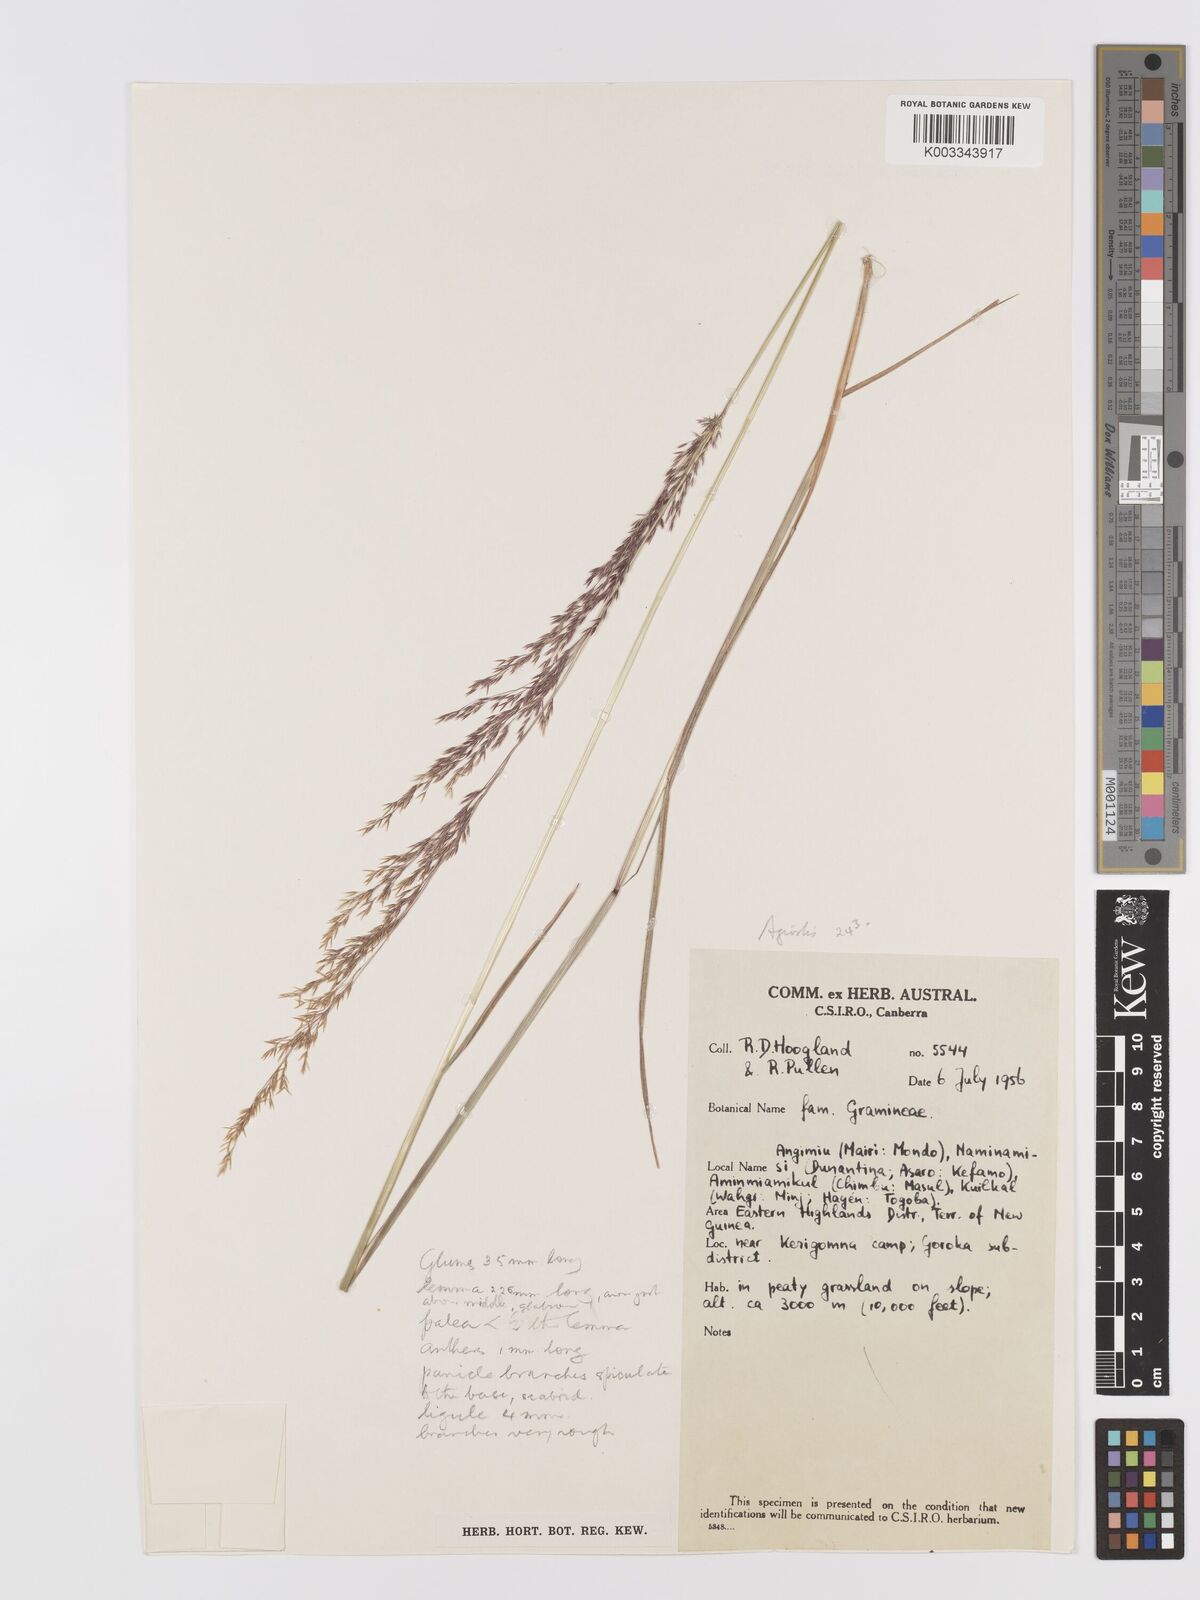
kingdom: Plantae
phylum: Tracheophyta
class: Liliopsida
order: Poales
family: Poaceae
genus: Agrostis
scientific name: Agrostis infirma
